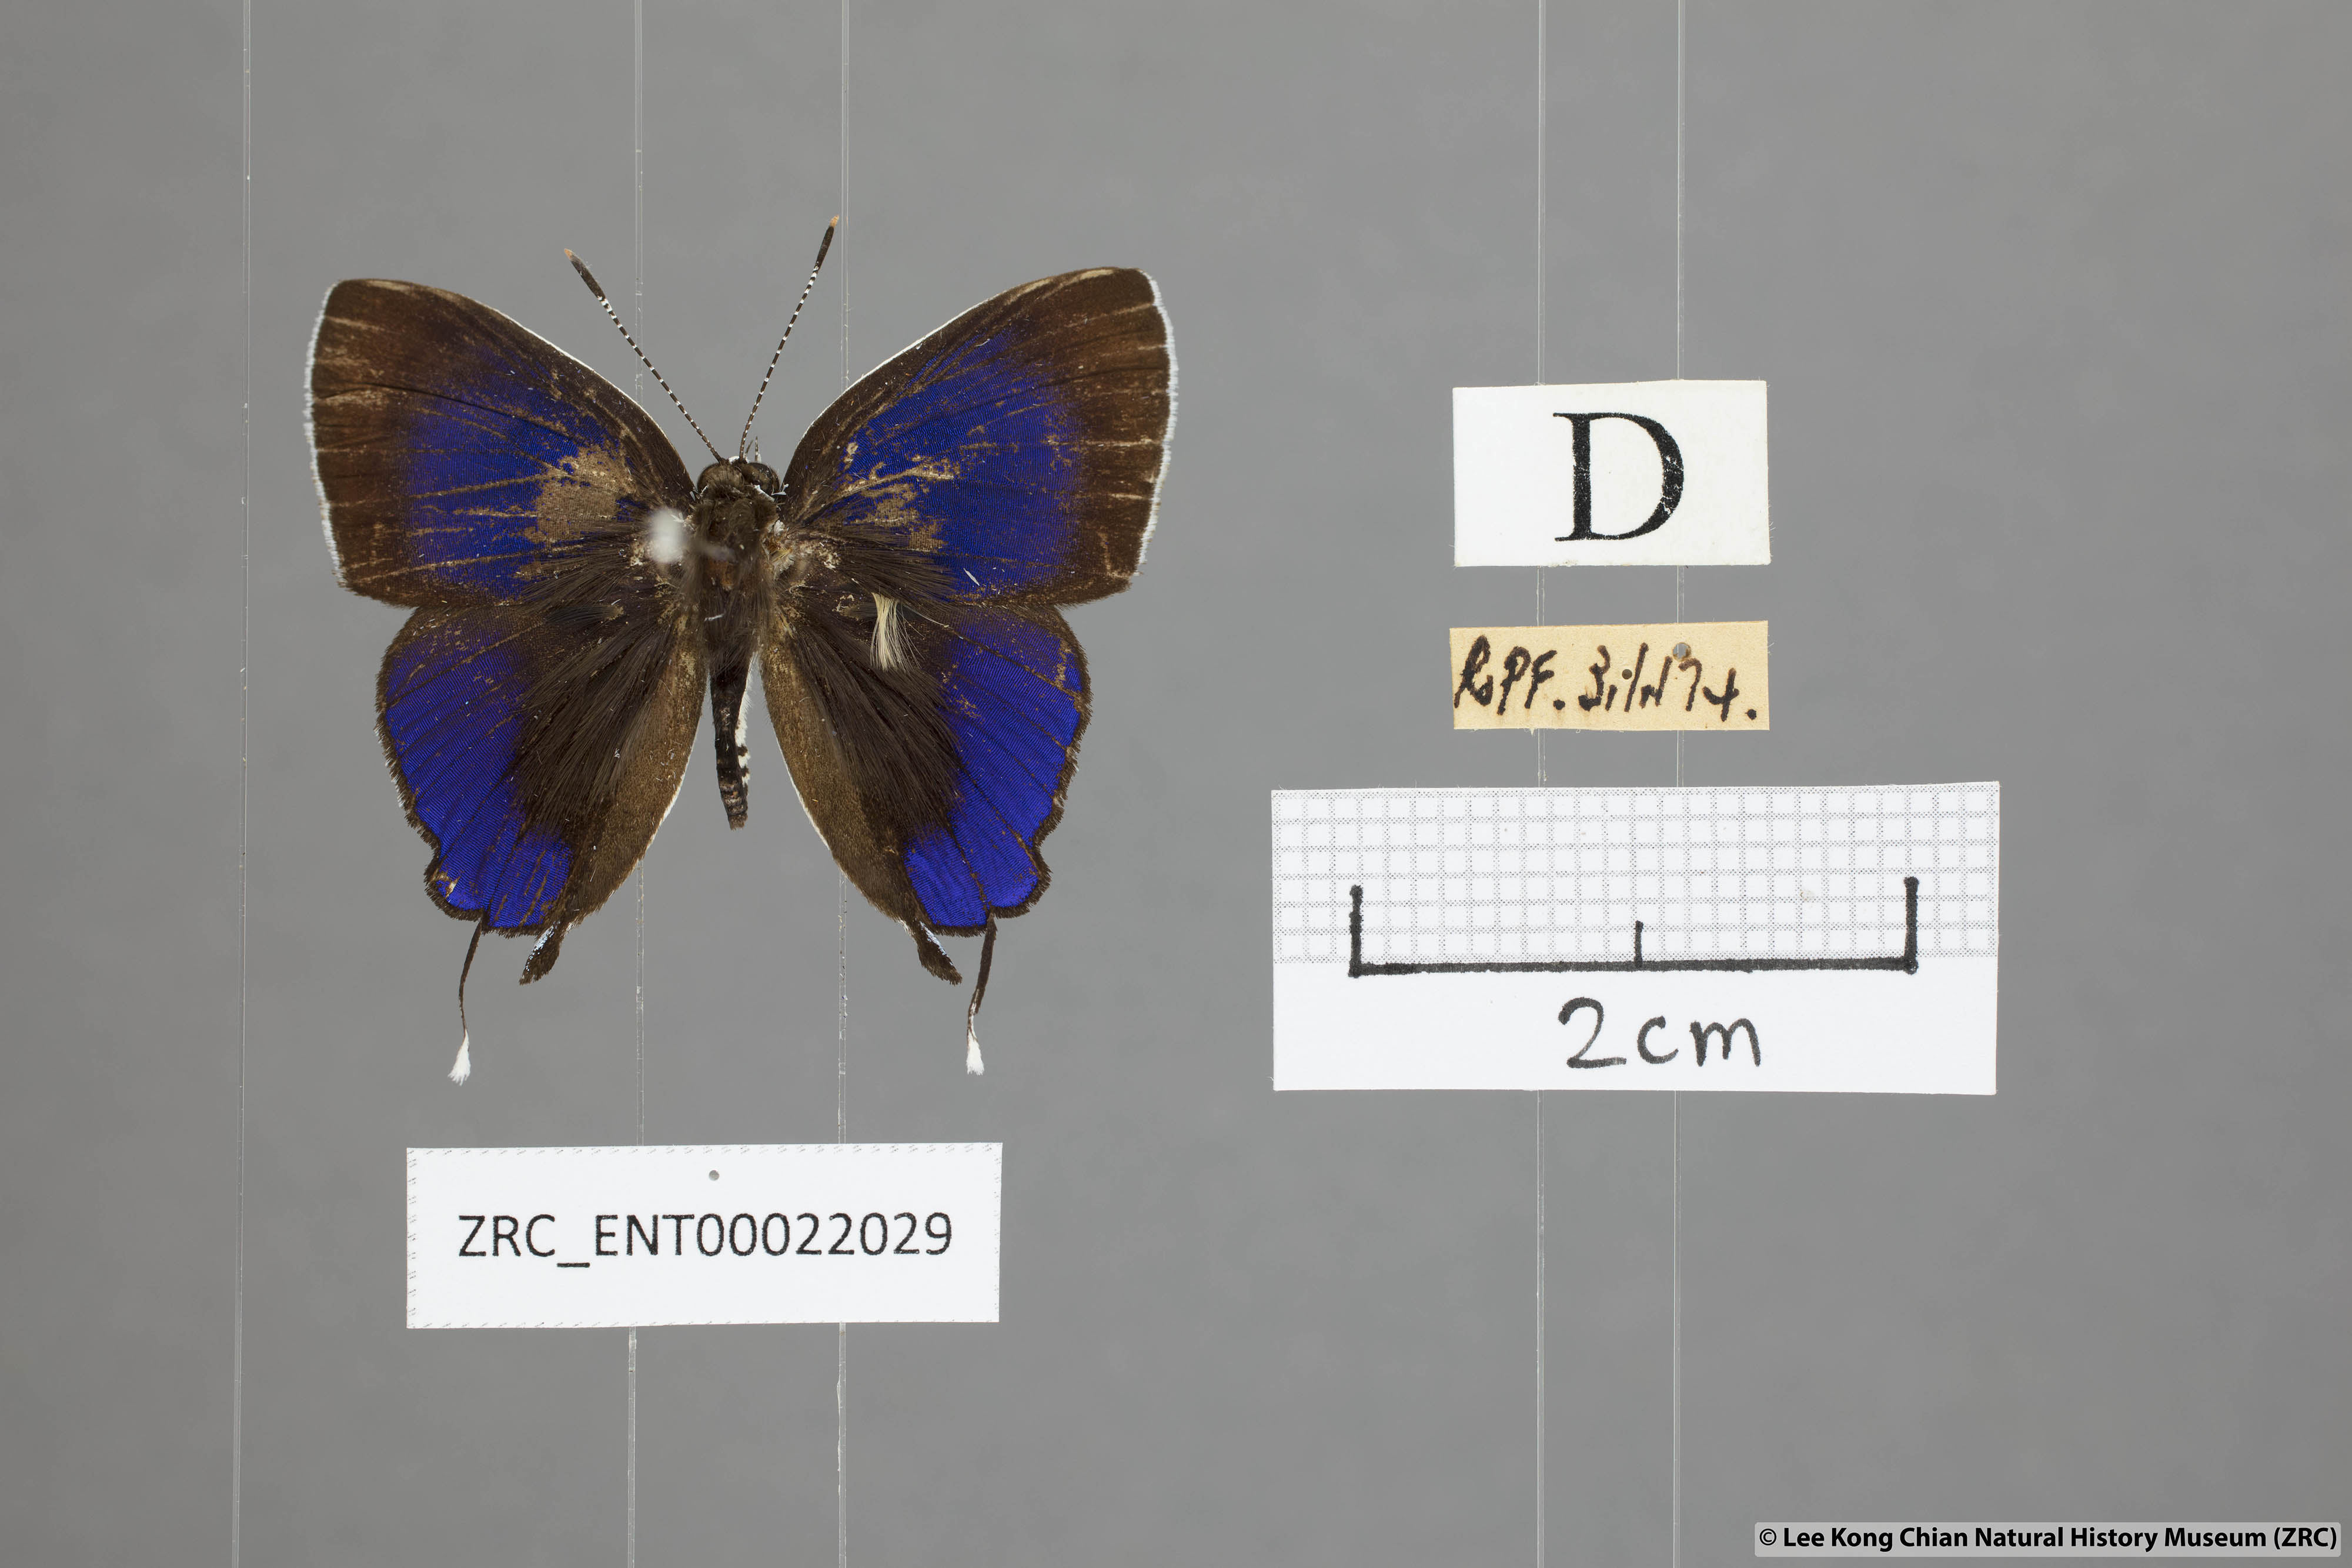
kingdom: Animalia
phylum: Arthropoda
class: Insecta
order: Lepidoptera
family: Lycaenidae
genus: Sithon
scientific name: Sithon nedymond
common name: Plush
